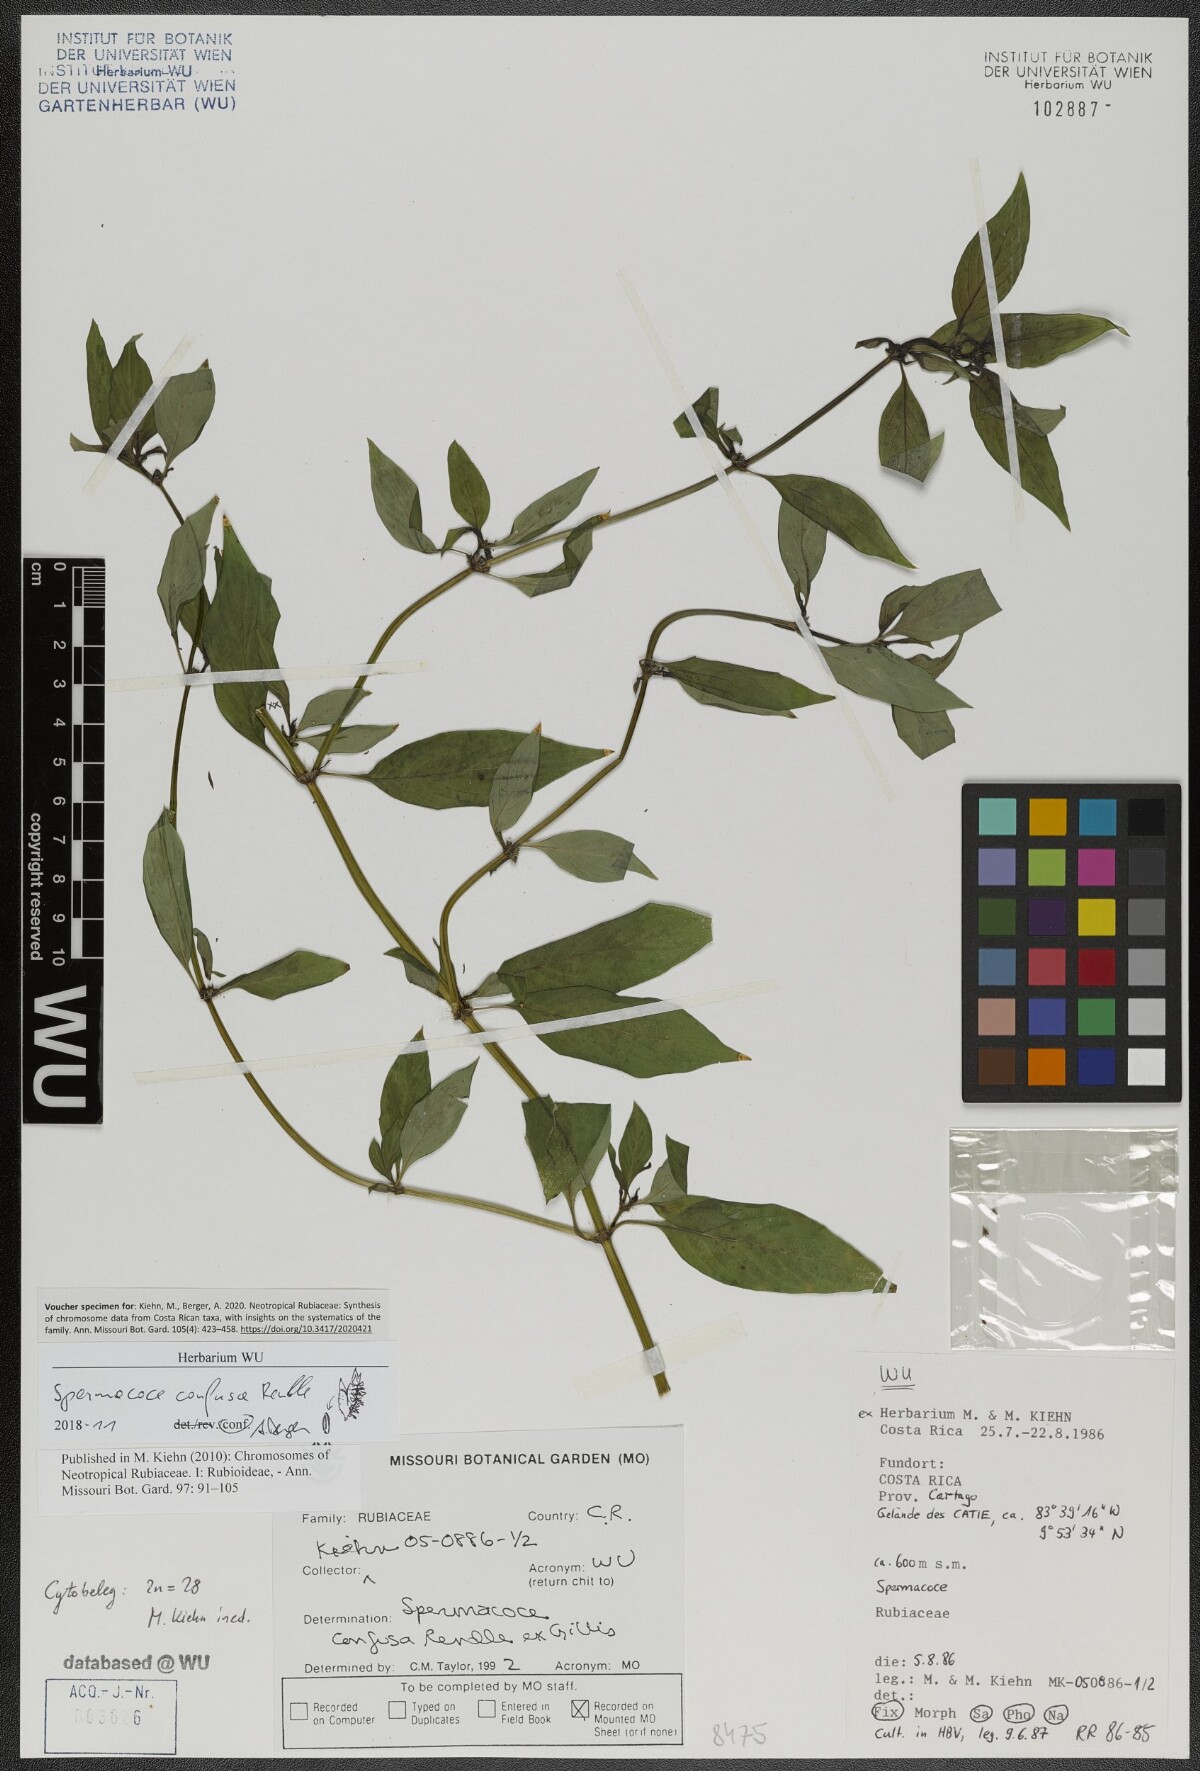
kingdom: Plantae
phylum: Tracheophyta
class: Magnoliopsida
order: Gentianales
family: Rubiaceae
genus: Spermacoce
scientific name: Spermacoce confusa
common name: Iron-grass
